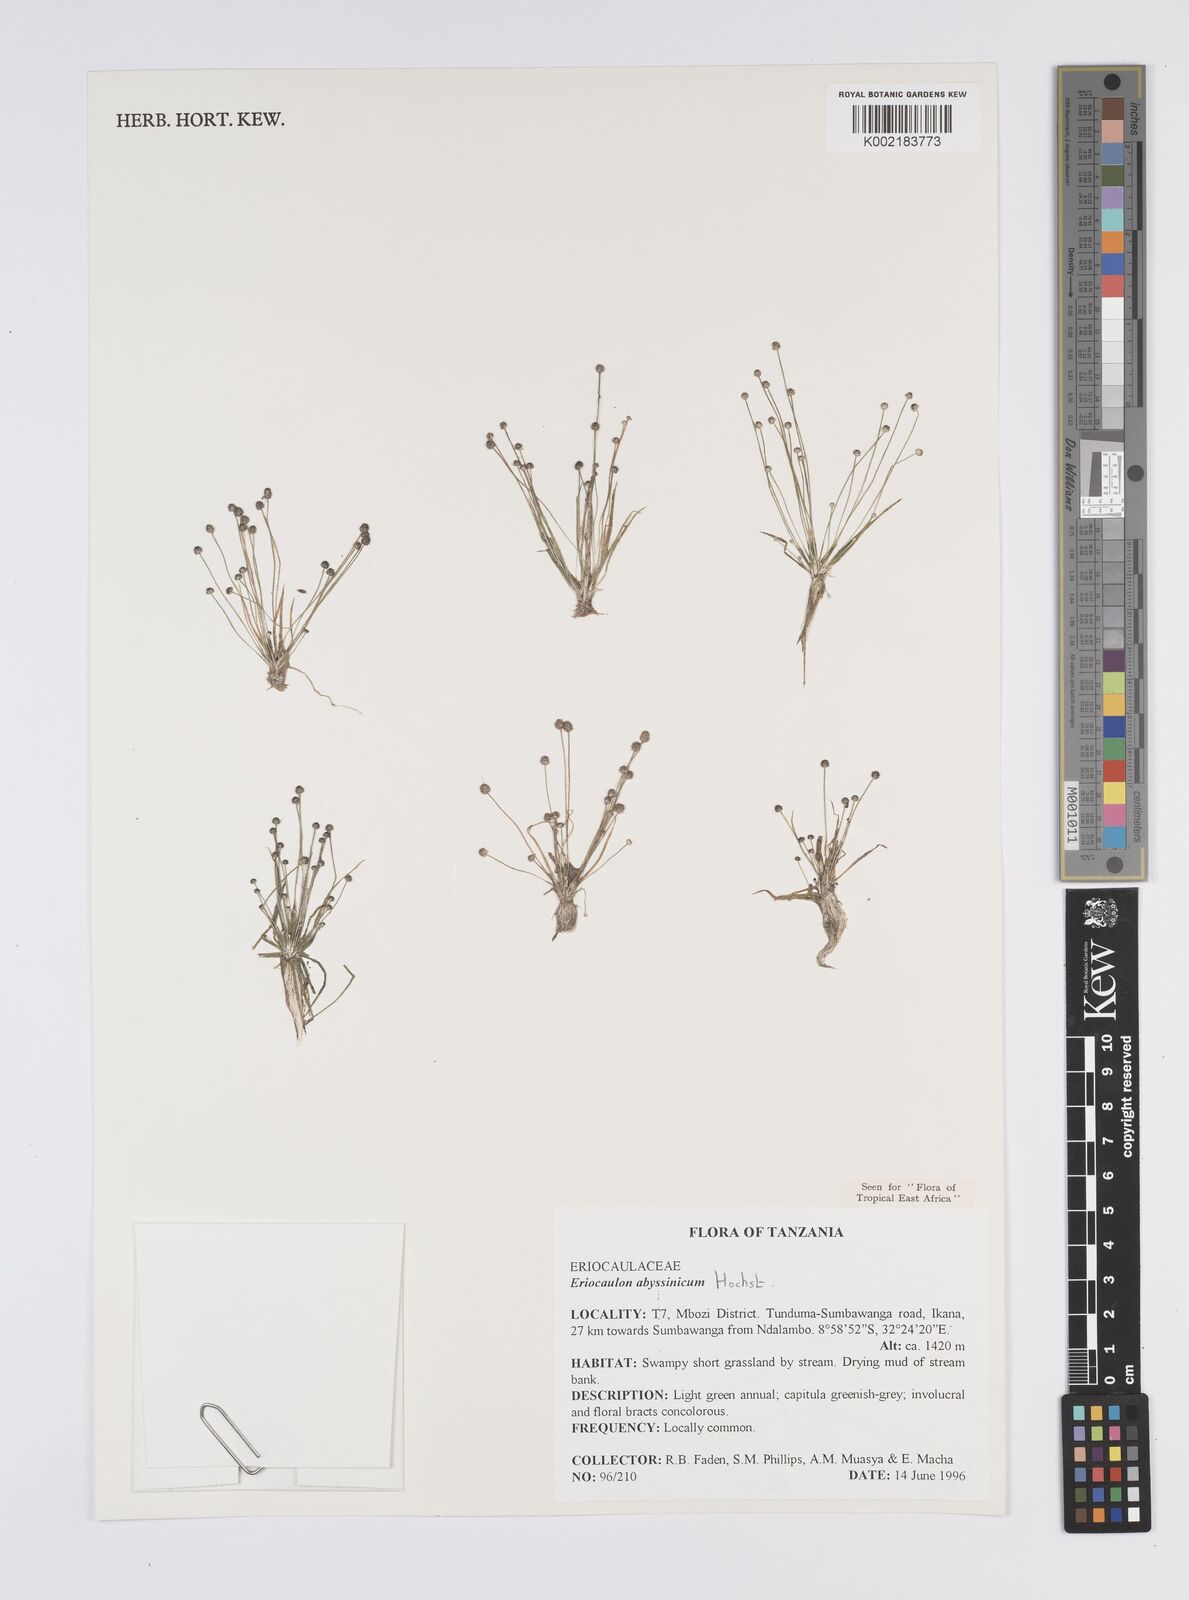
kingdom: Plantae
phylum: Tracheophyta
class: Liliopsida
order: Poales
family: Eriocaulaceae
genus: Eriocaulon
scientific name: Eriocaulon abyssinicum
